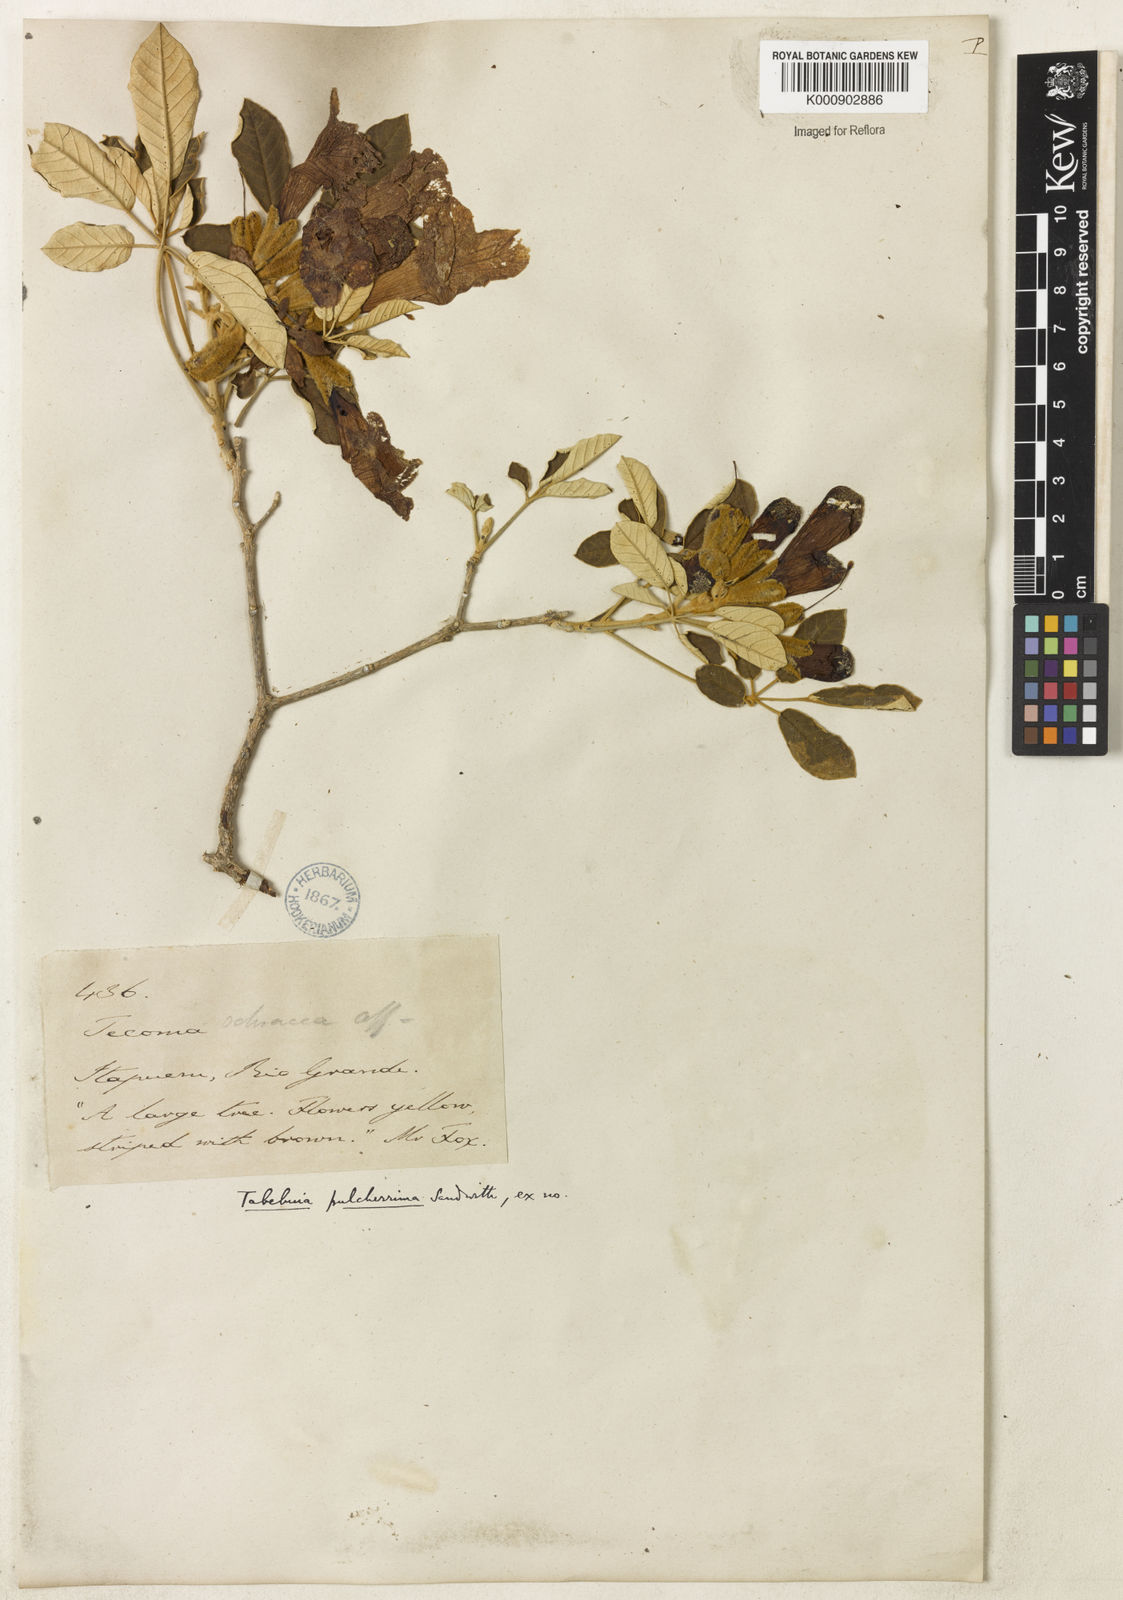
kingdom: Plantae
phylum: Tracheophyta
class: Magnoliopsida
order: Lamiales
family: Bignoniaceae
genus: Handroanthus
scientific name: Handroanthus pulcherrimus
